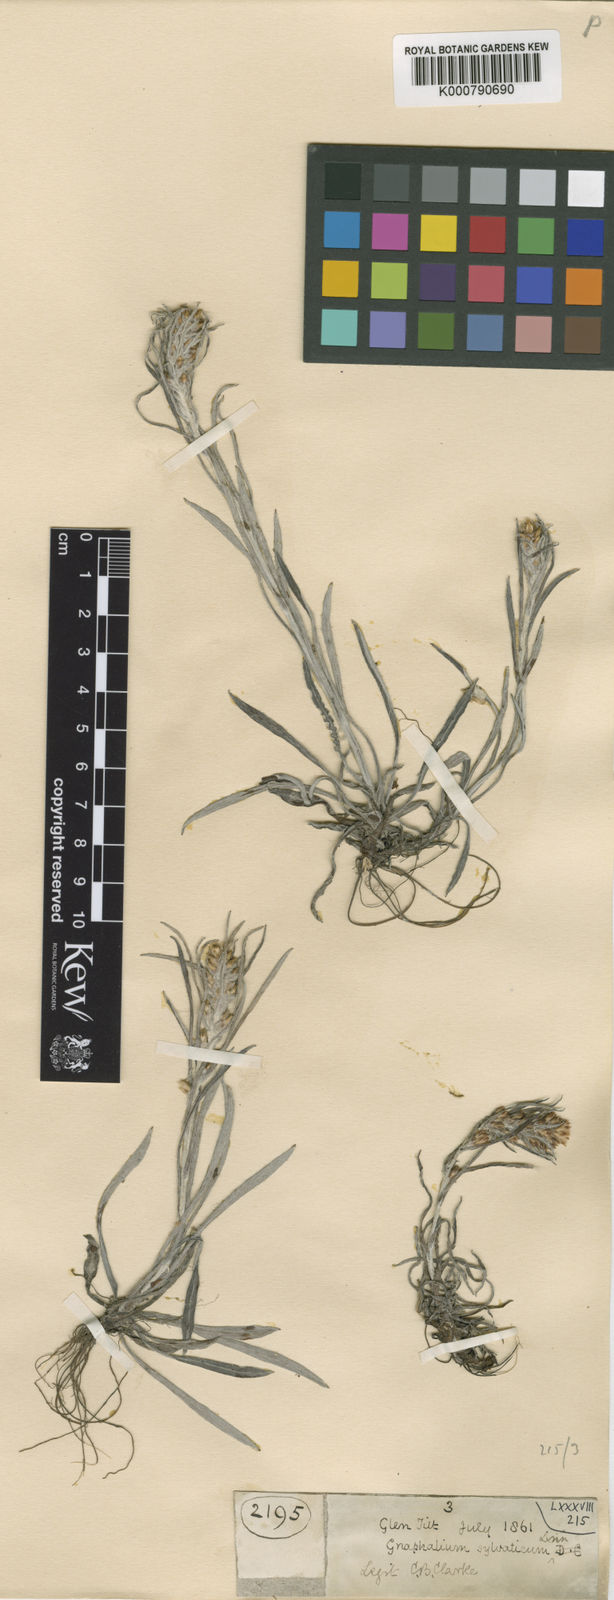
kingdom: Plantae
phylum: Tracheophyta
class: Magnoliopsida
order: Asterales
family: Asteraceae
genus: Omalotheca
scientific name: Omalotheca sylvatica
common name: Heath cudweed
